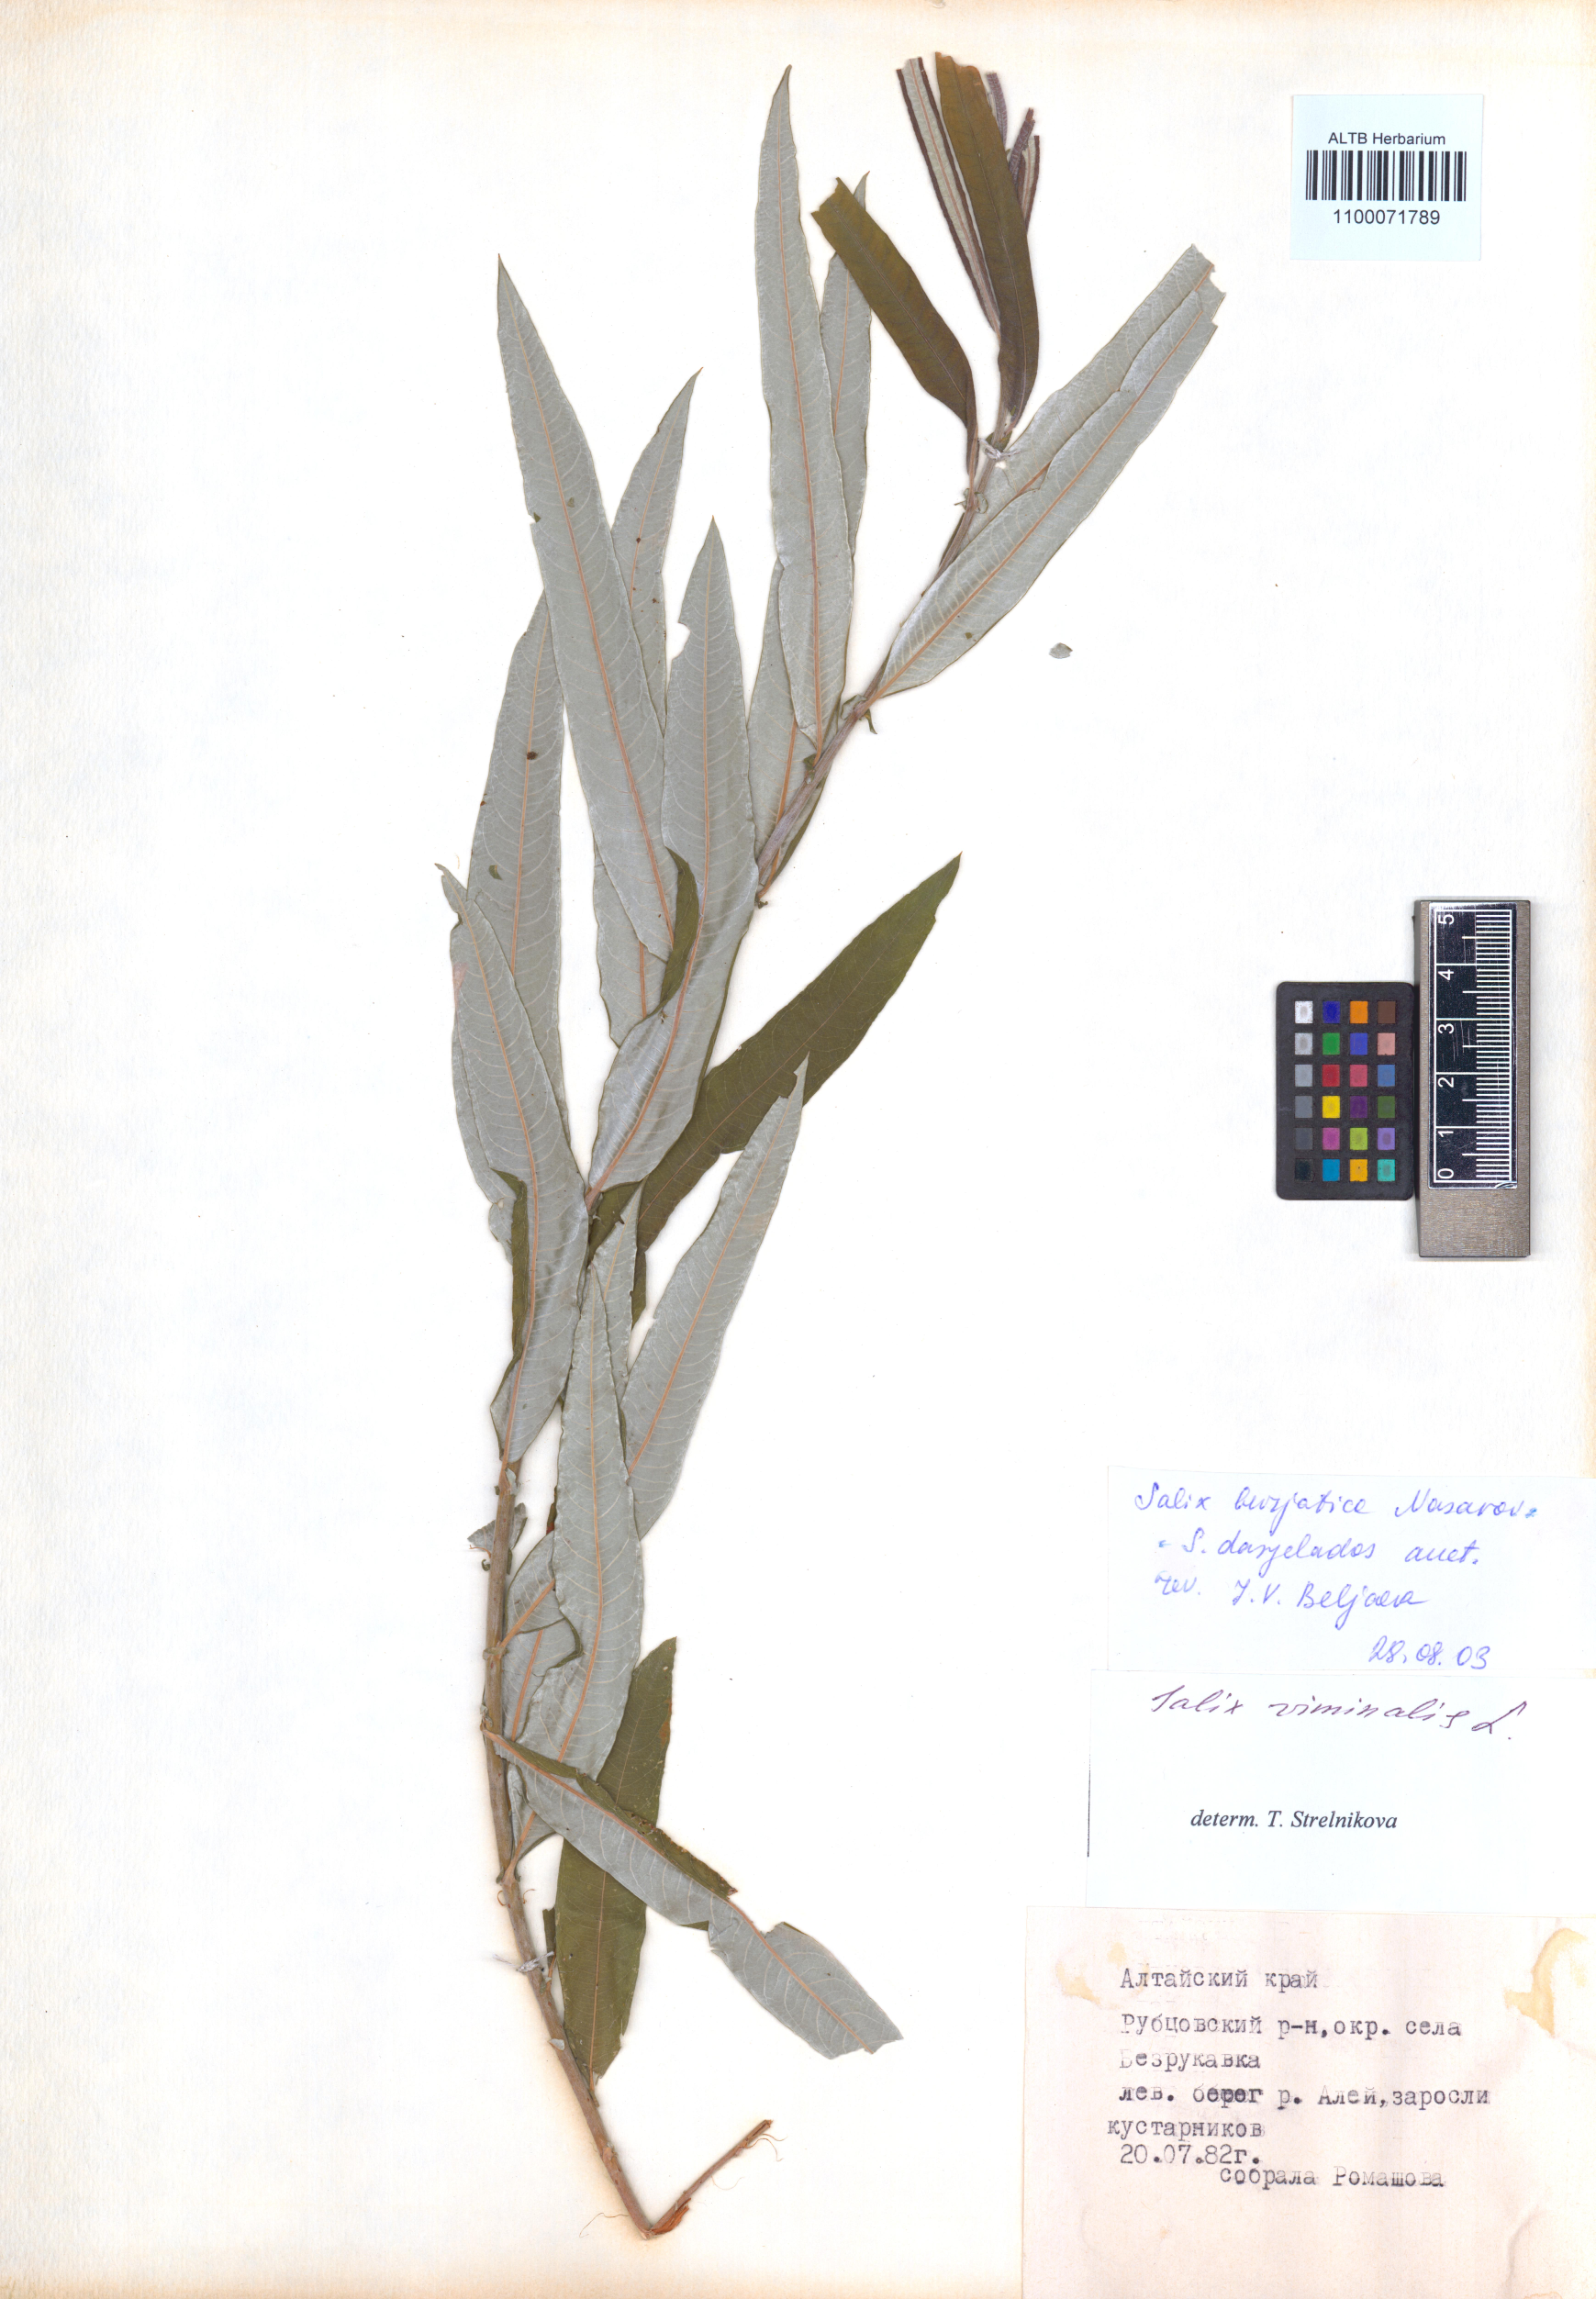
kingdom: Plantae
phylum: Tracheophyta
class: Magnoliopsida
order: Malpighiales
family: Salicaceae
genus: Salix
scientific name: Salix gmelinii
